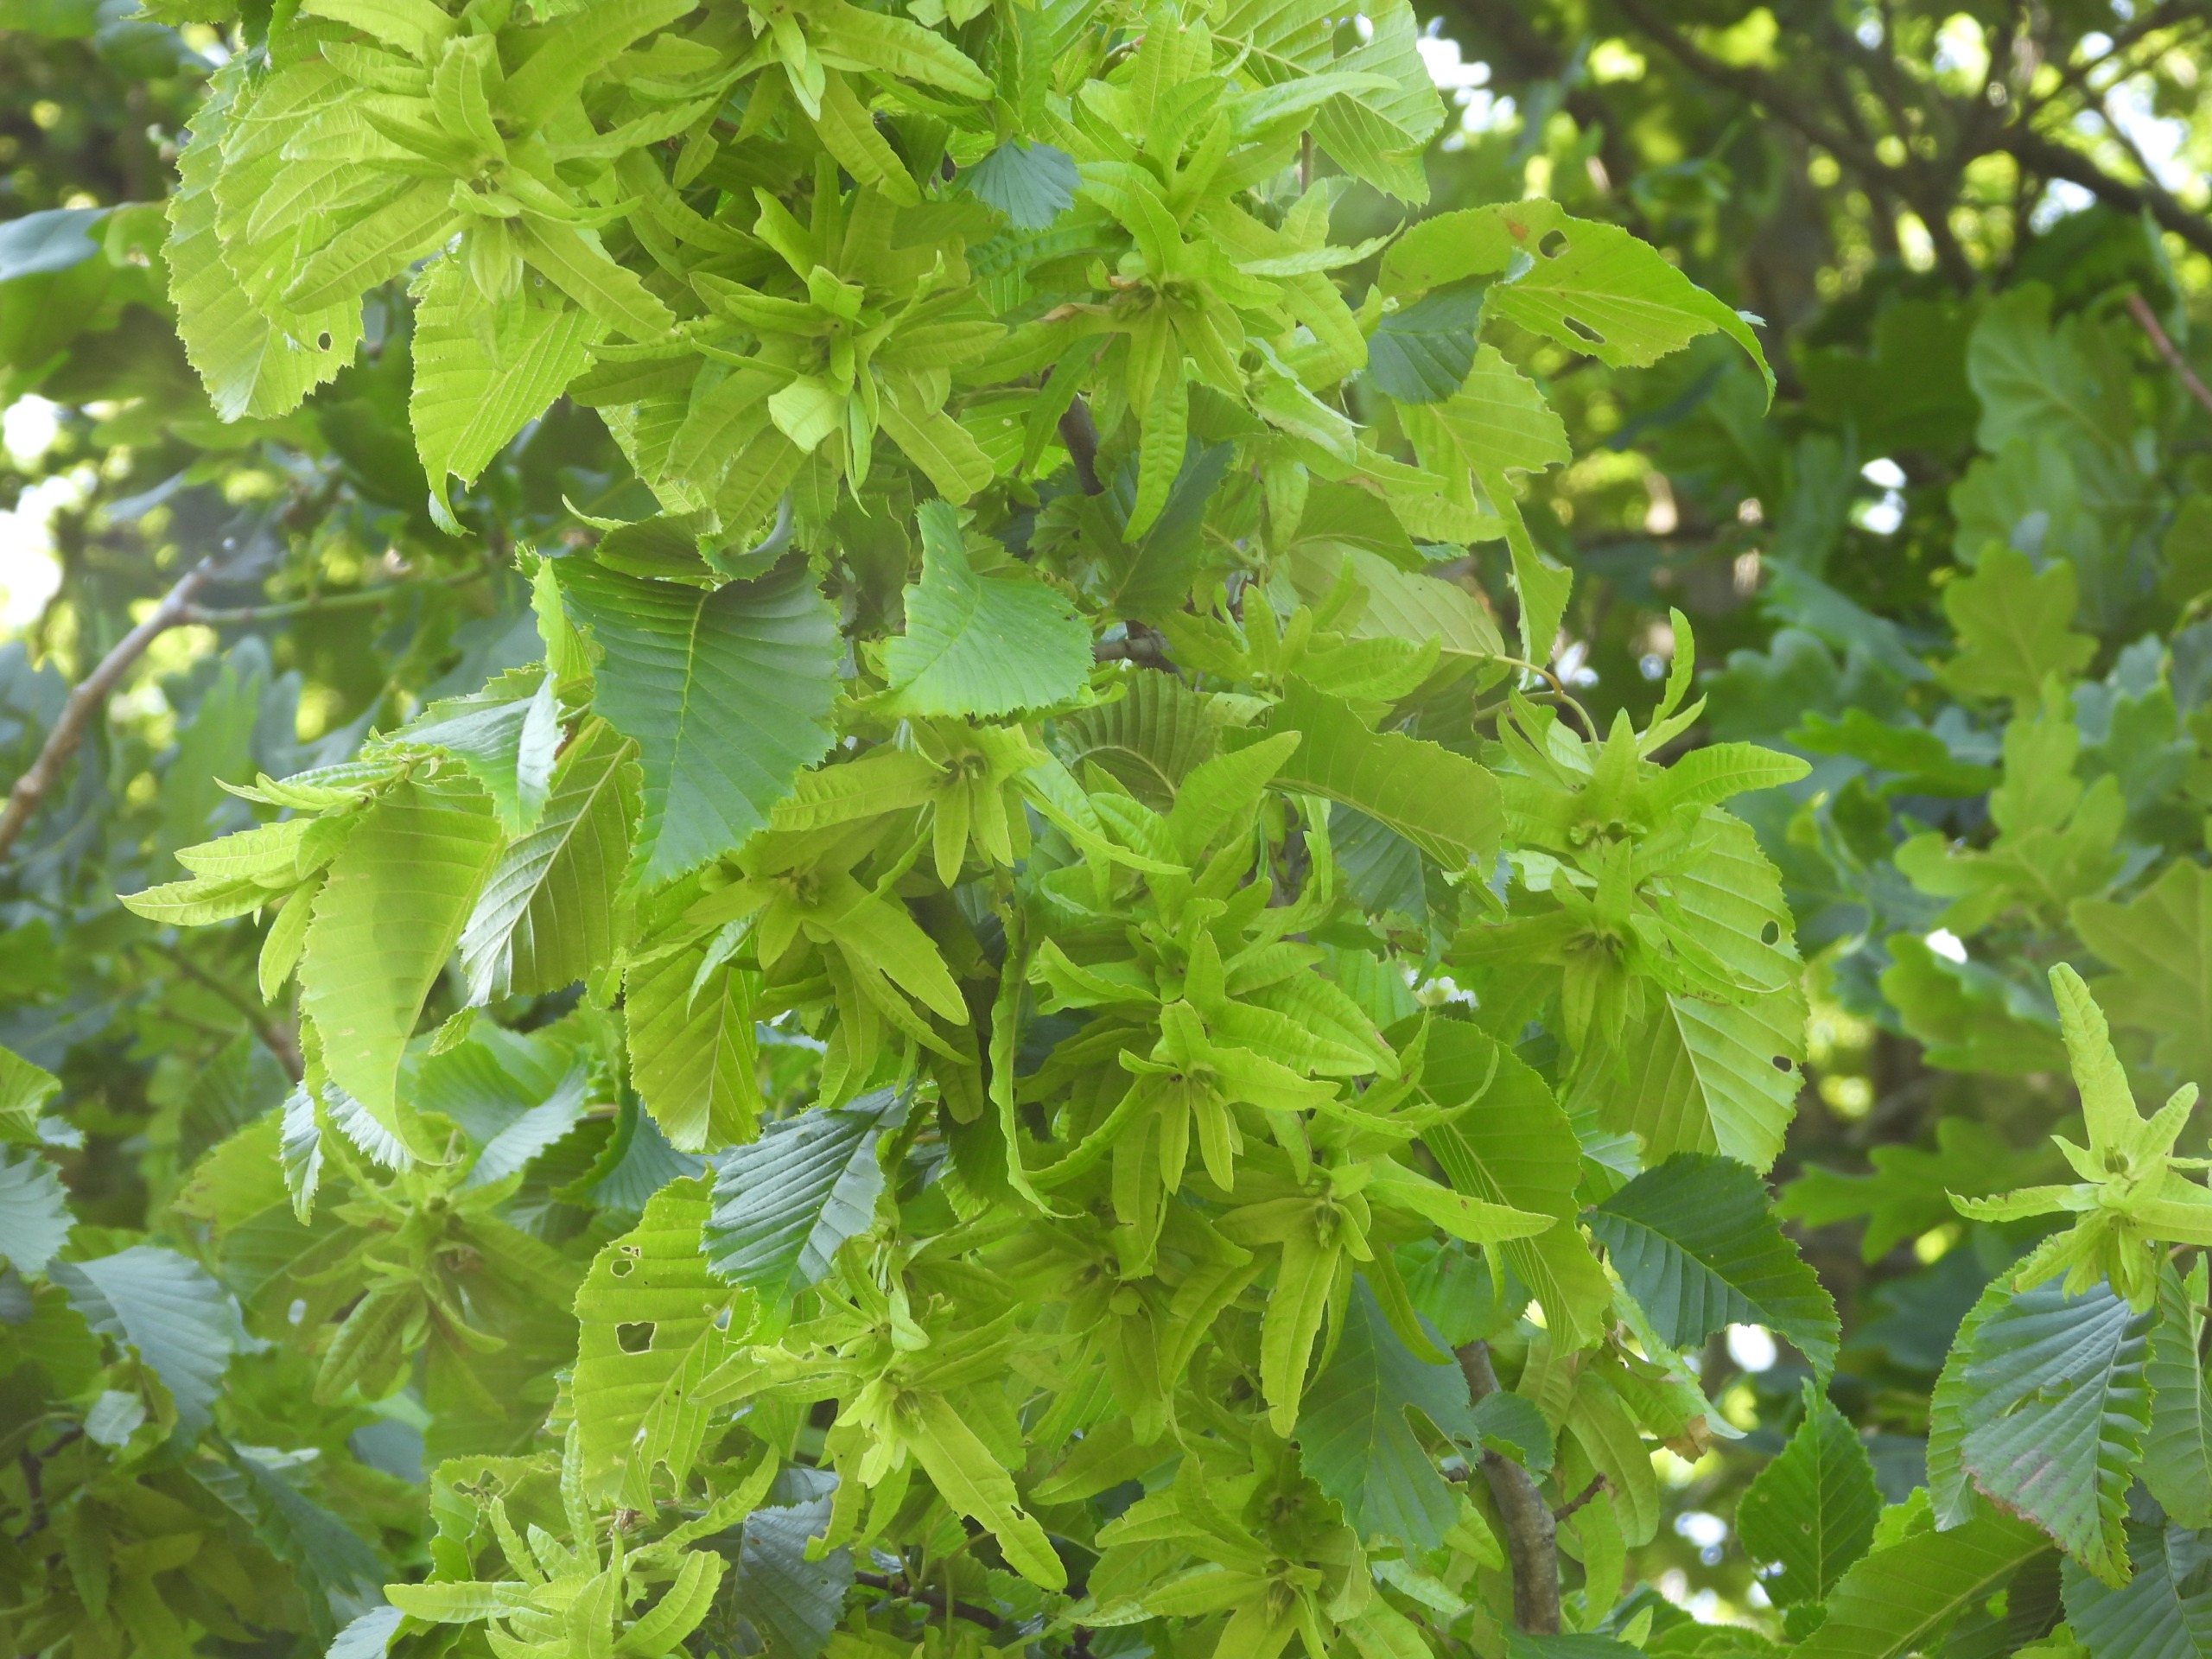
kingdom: Plantae
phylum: Tracheophyta
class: Magnoliopsida
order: Fagales
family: Betulaceae
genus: Carpinus
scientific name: Carpinus betulus
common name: Avnbøg
